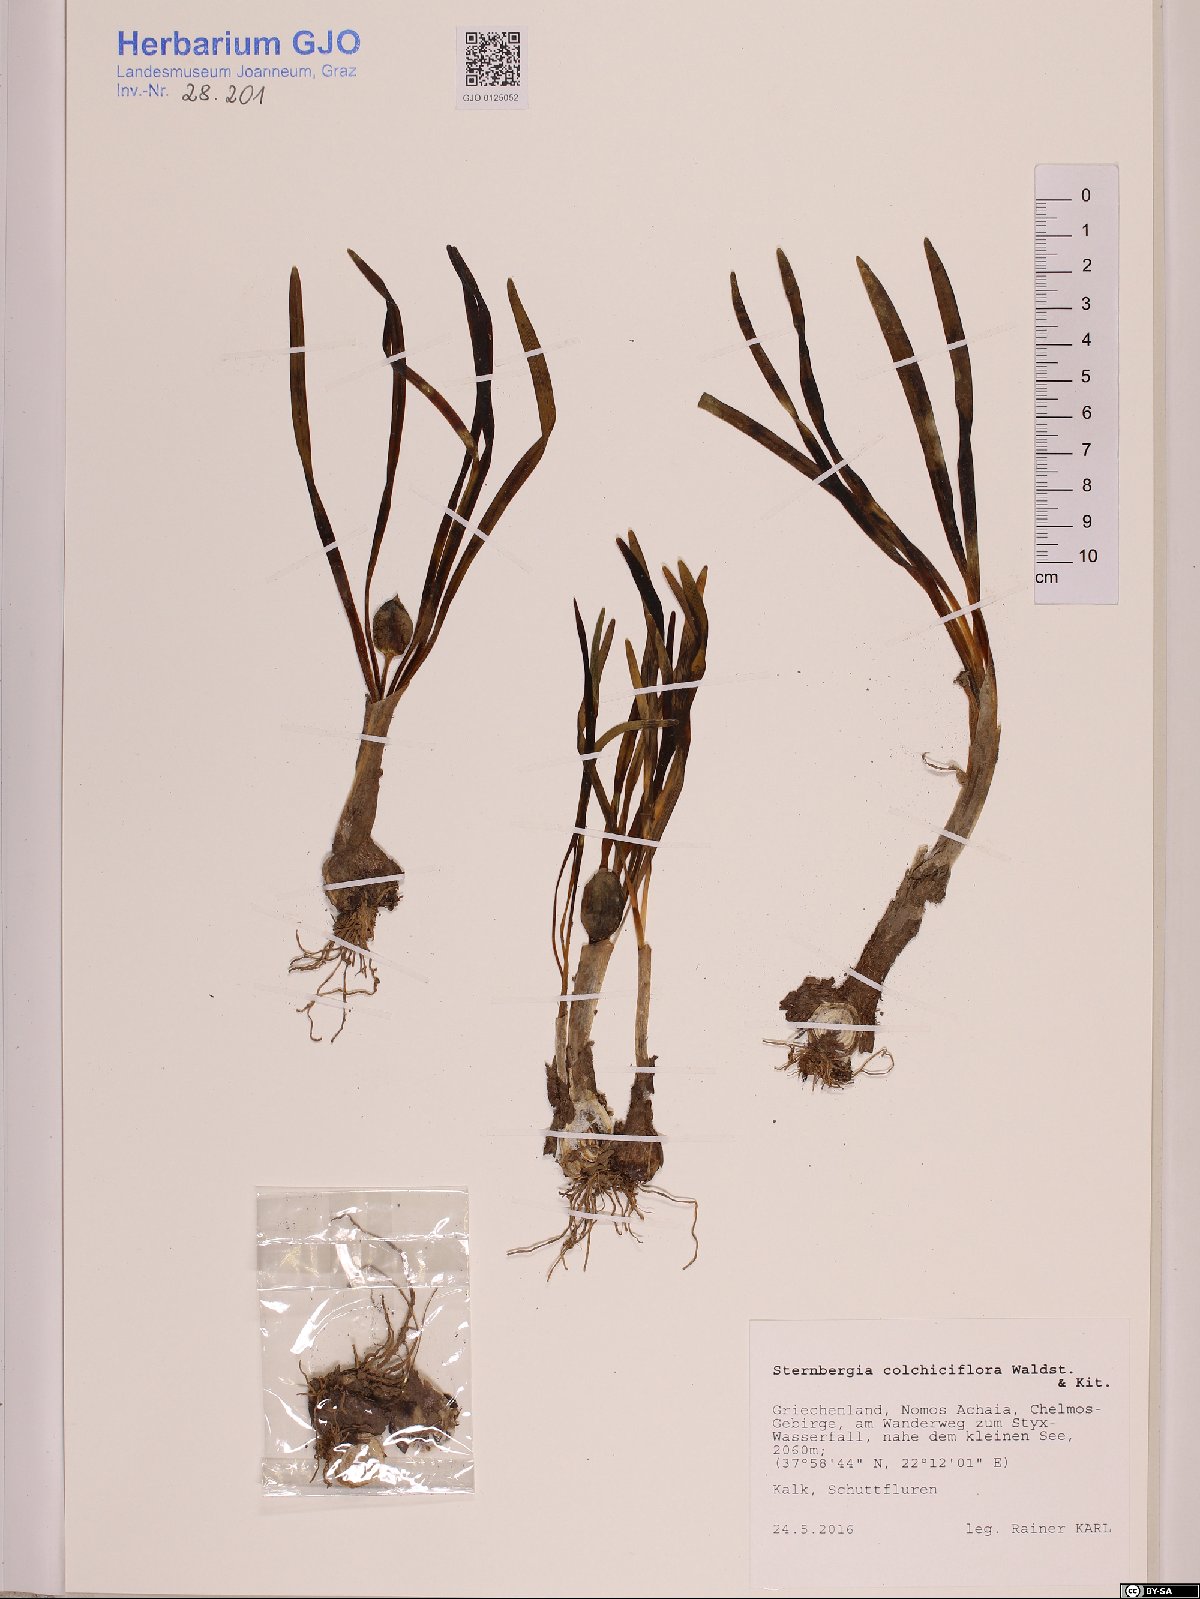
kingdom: Plantae
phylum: Tracheophyta
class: Liliopsida
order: Asparagales
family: Amaryllidaceae
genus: Sternbergia
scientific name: Sternbergia colchiciflora
